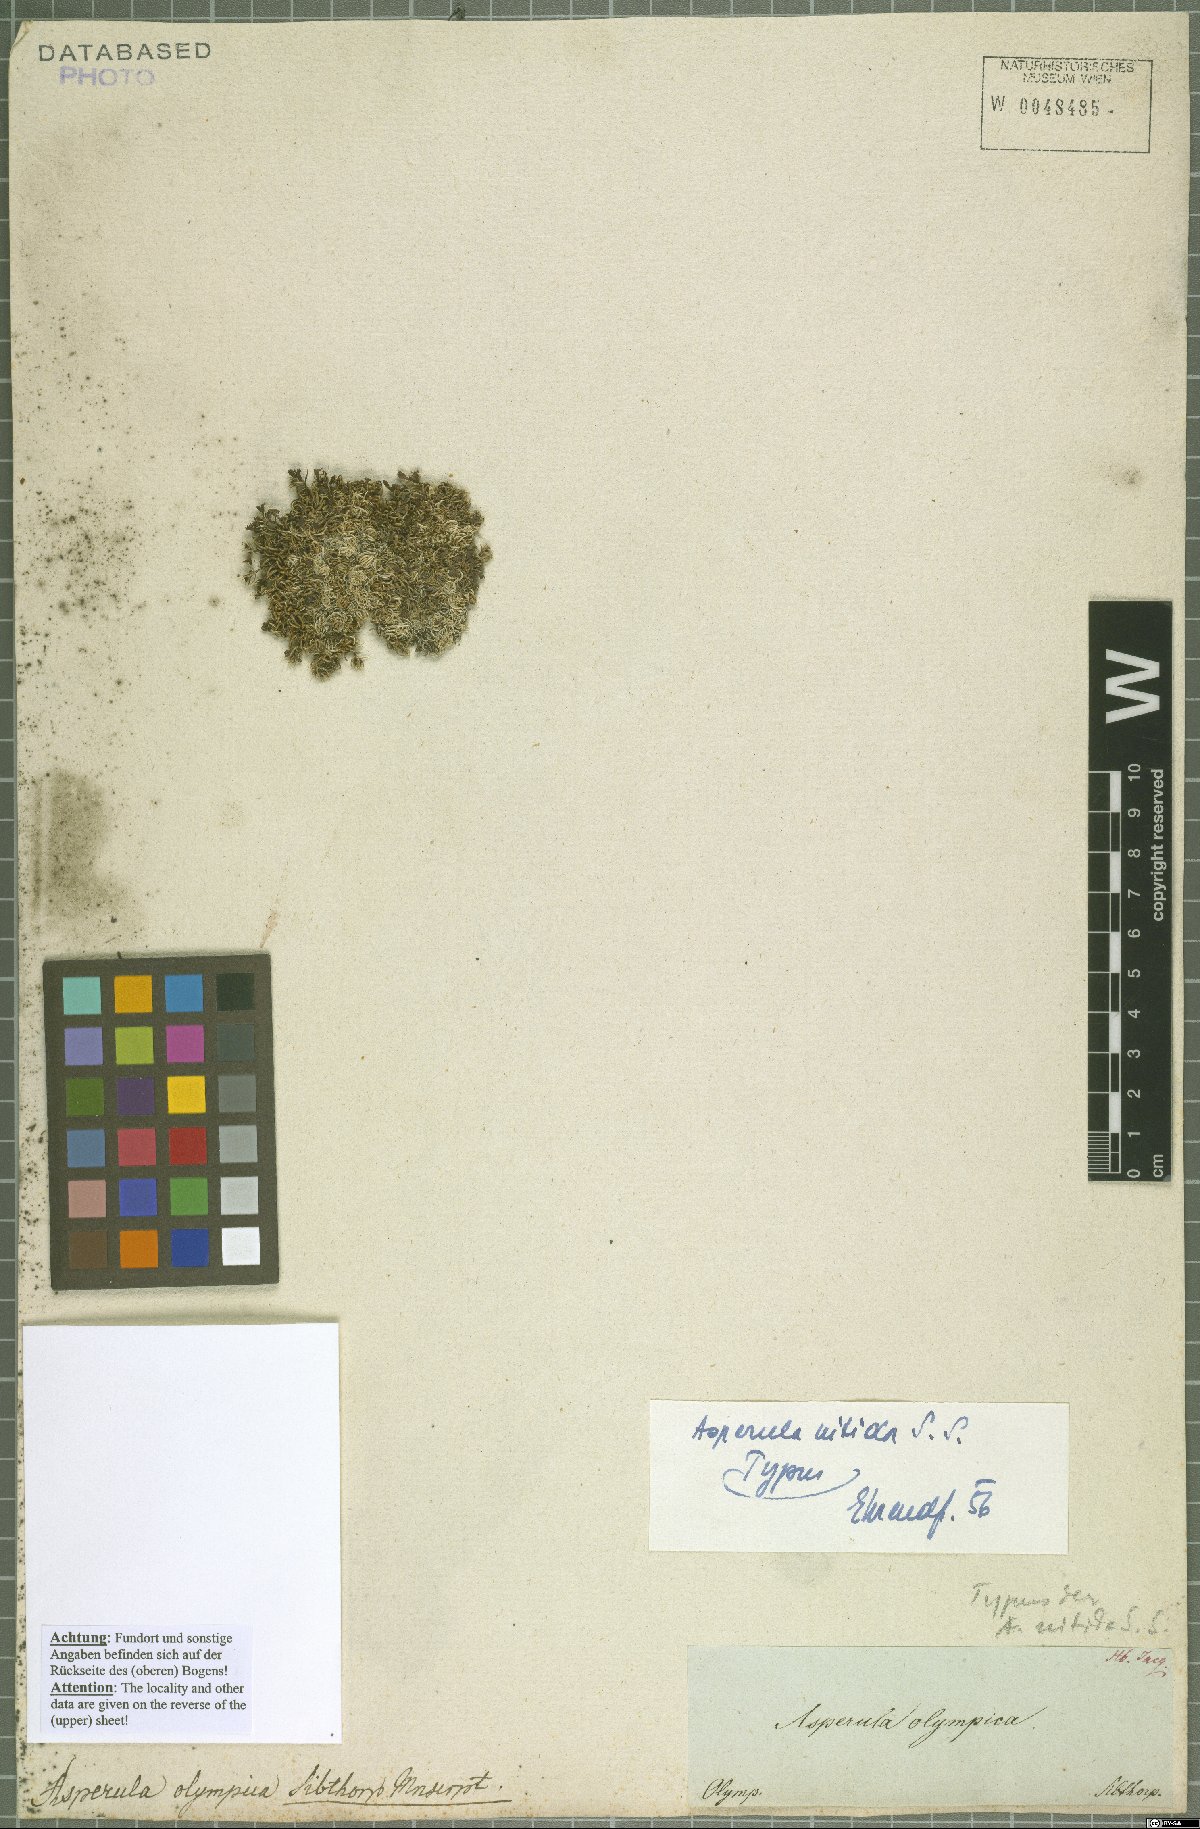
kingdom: Plantae
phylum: Tracheophyta
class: Magnoliopsida
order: Gentianales
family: Rubiaceae
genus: Cynanchica
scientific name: Cynanchica nitida
